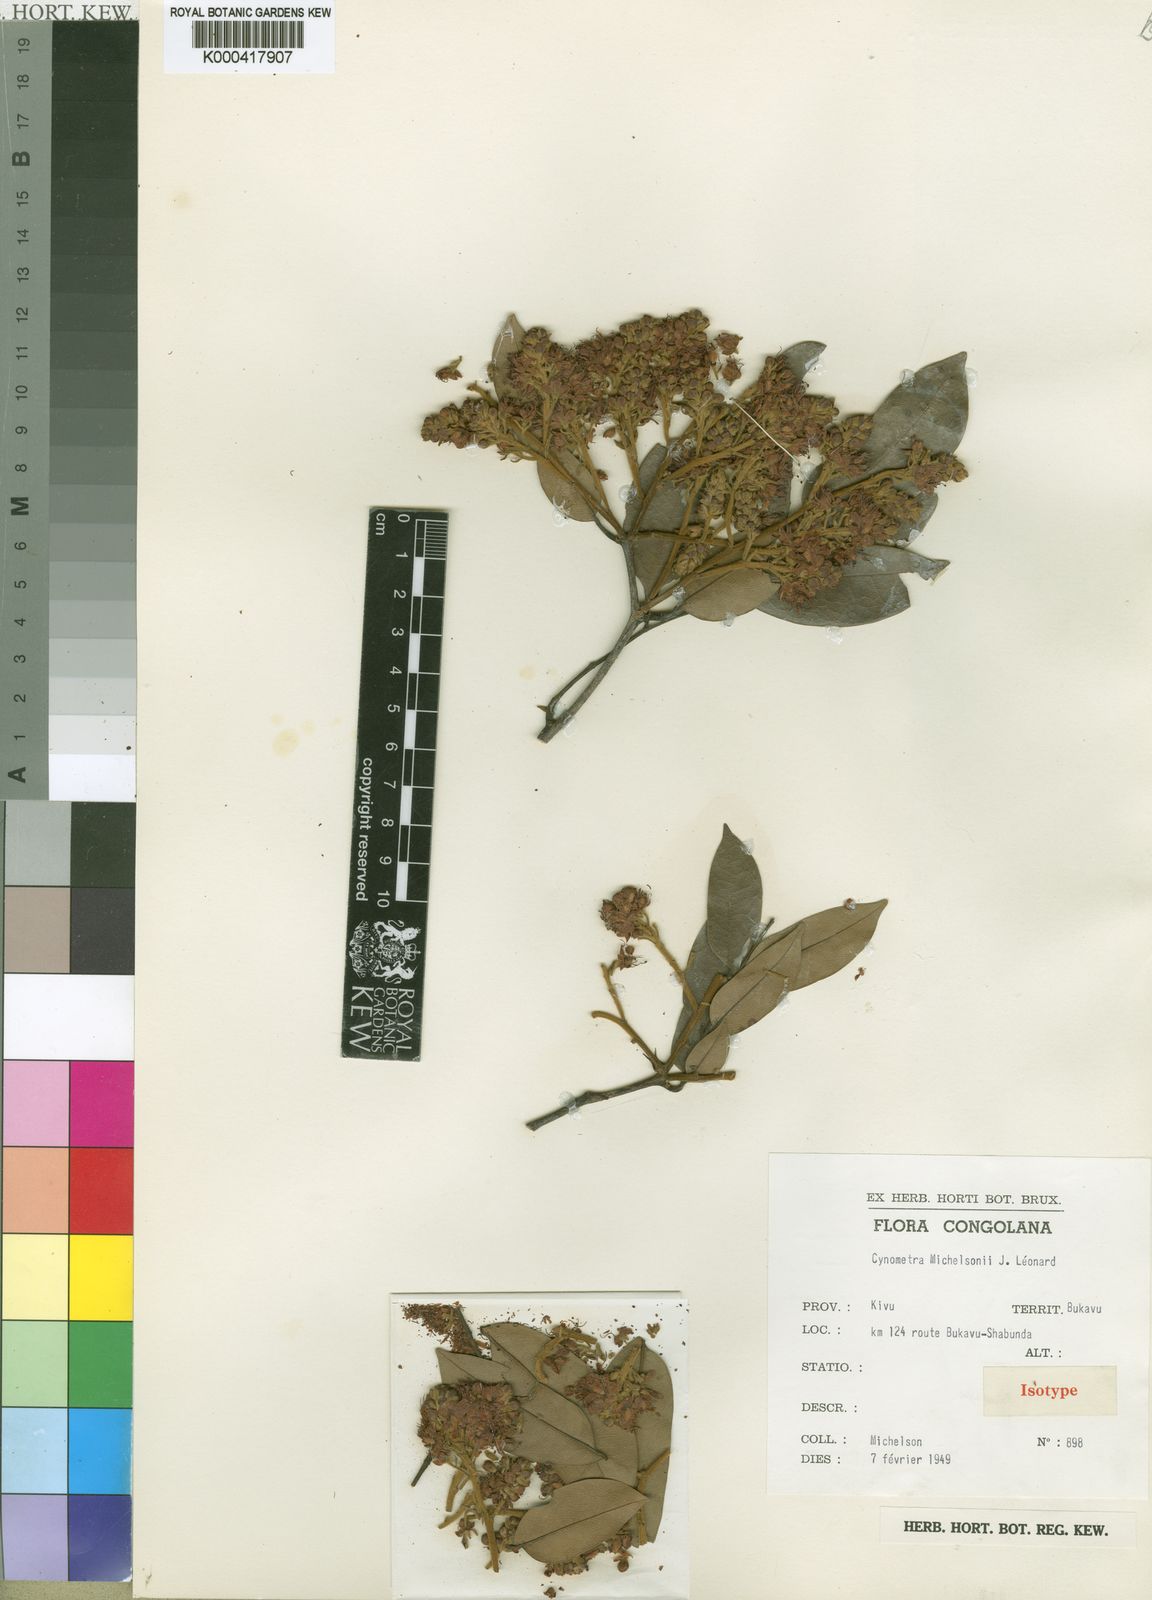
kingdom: Plantae
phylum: Tracheophyta
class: Magnoliopsida
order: Fabales
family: Fabaceae
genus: Cynometra
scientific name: Cynometra
